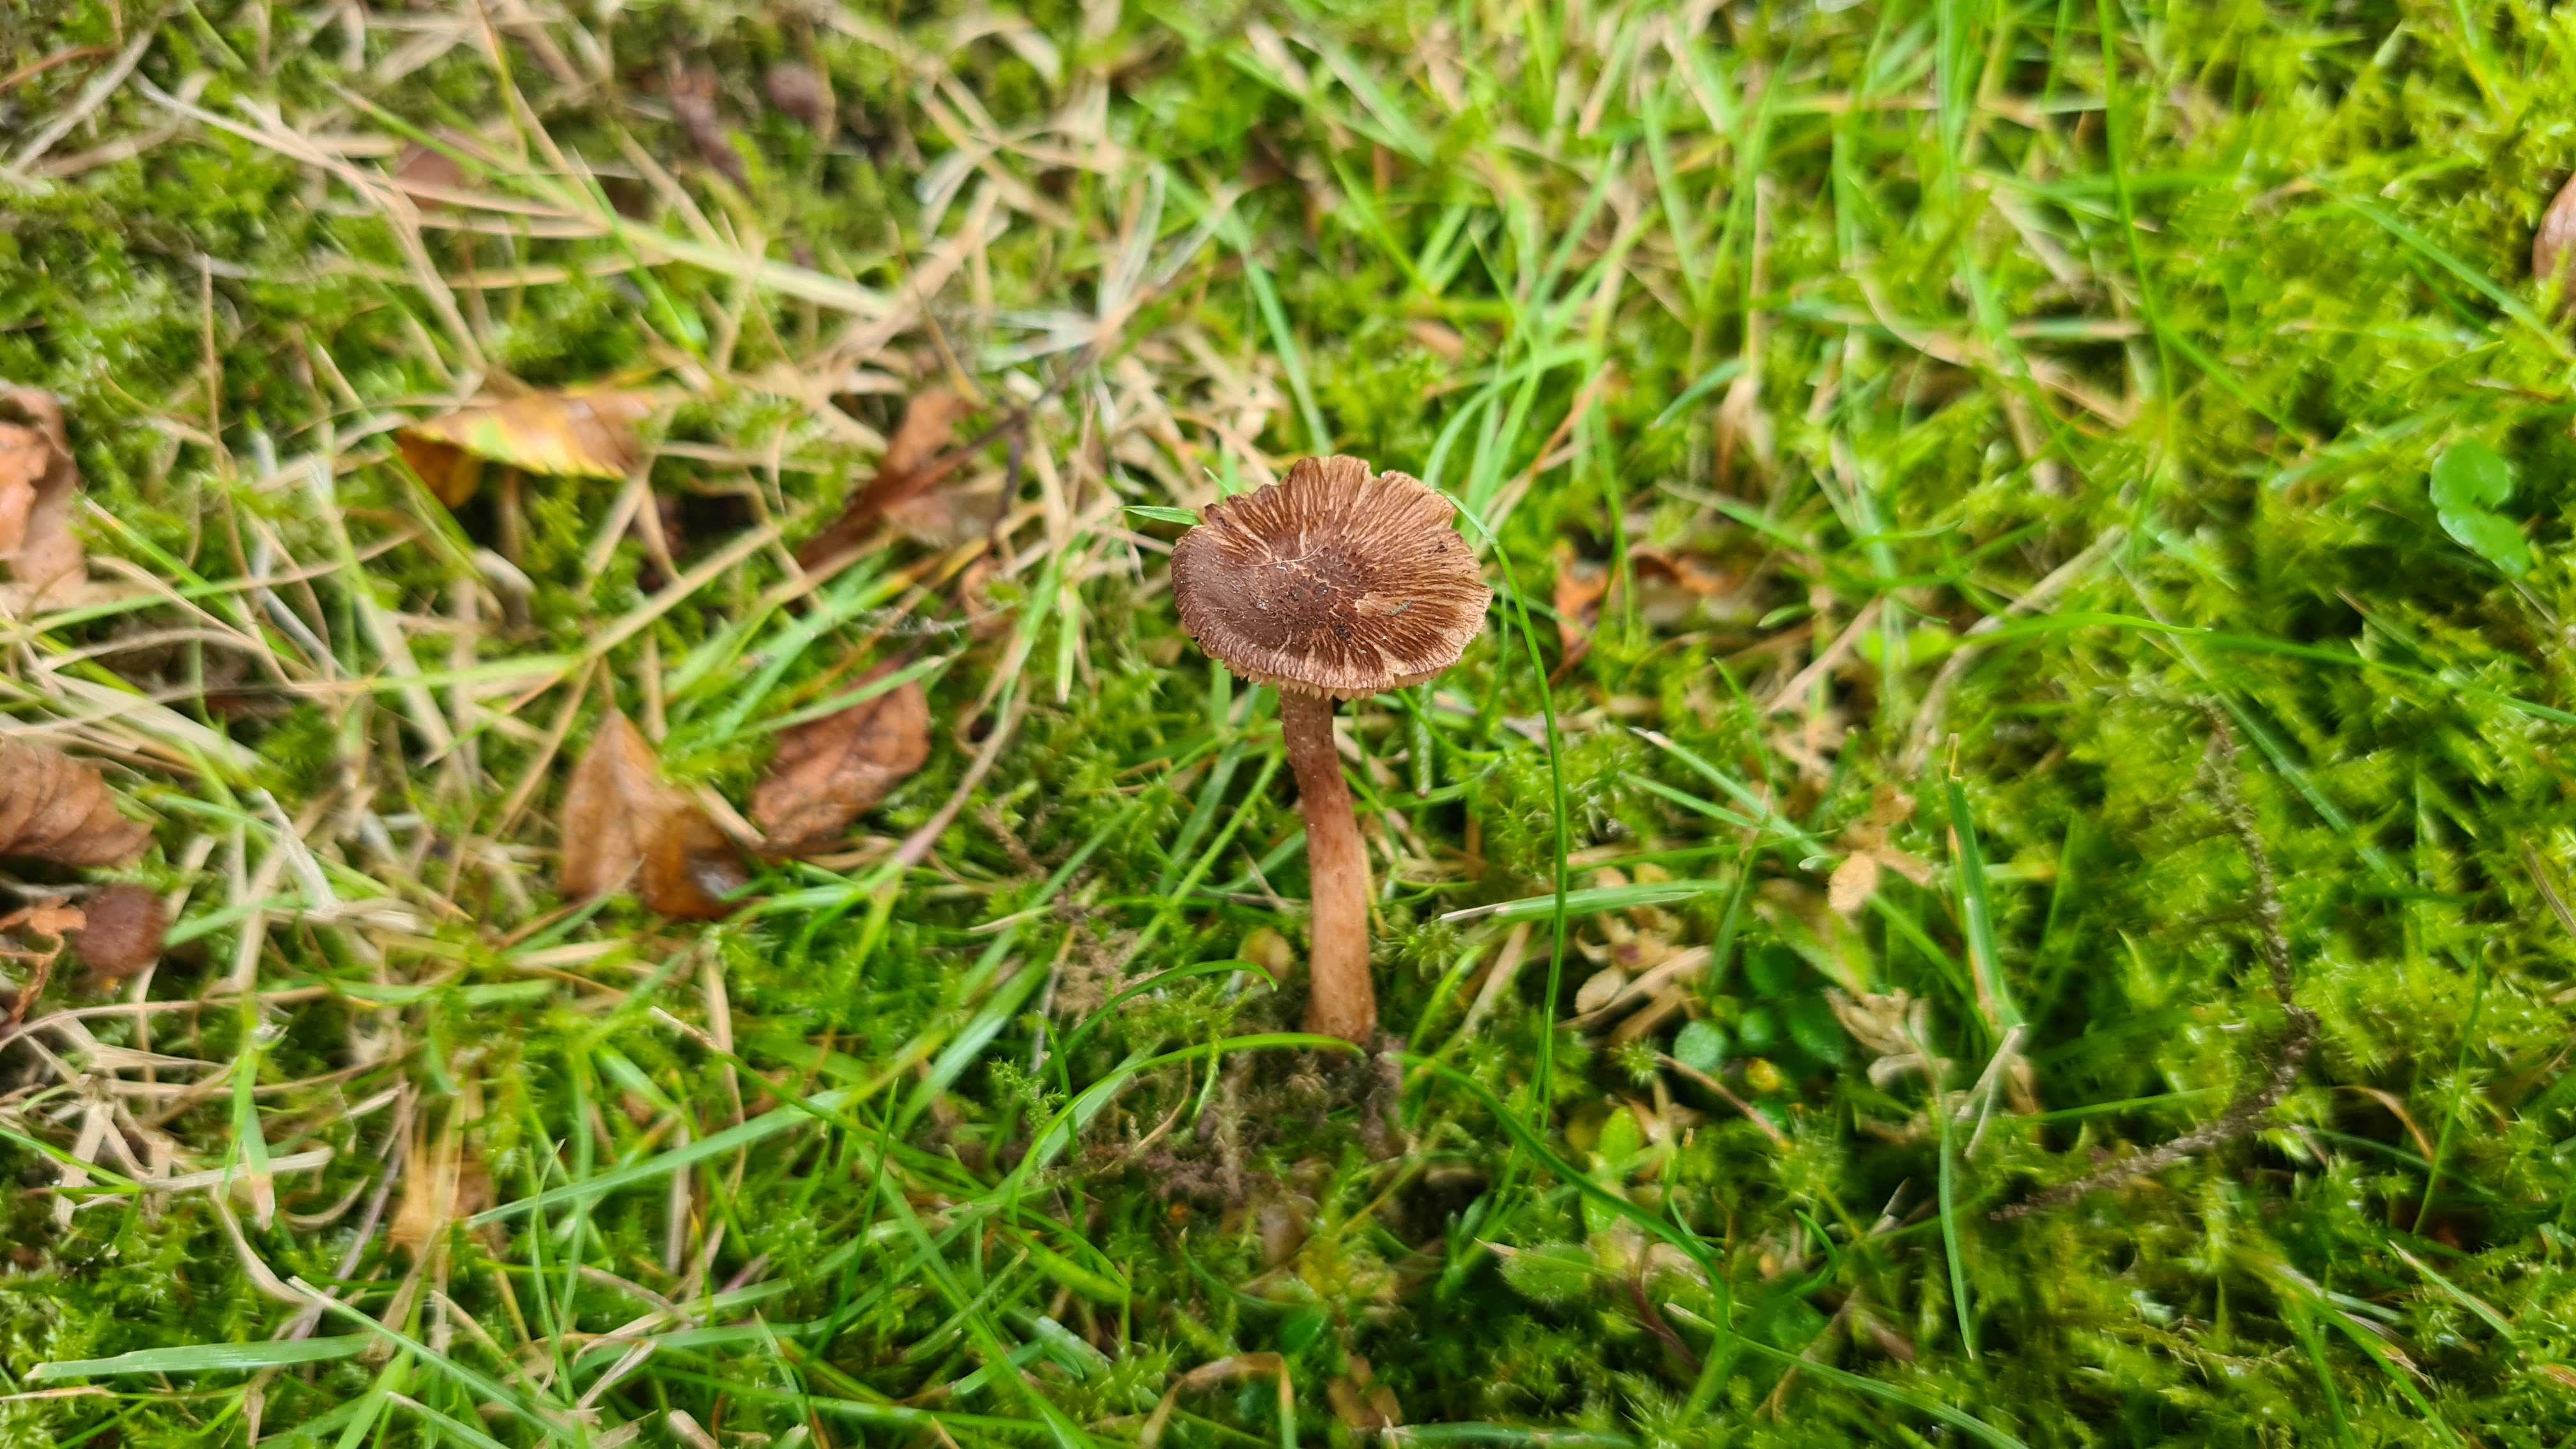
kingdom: Fungi
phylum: Basidiomycota
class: Agaricomycetes
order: Agaricales
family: Inocybaceae
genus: Inocybe
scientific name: Inocybe cincinnata
